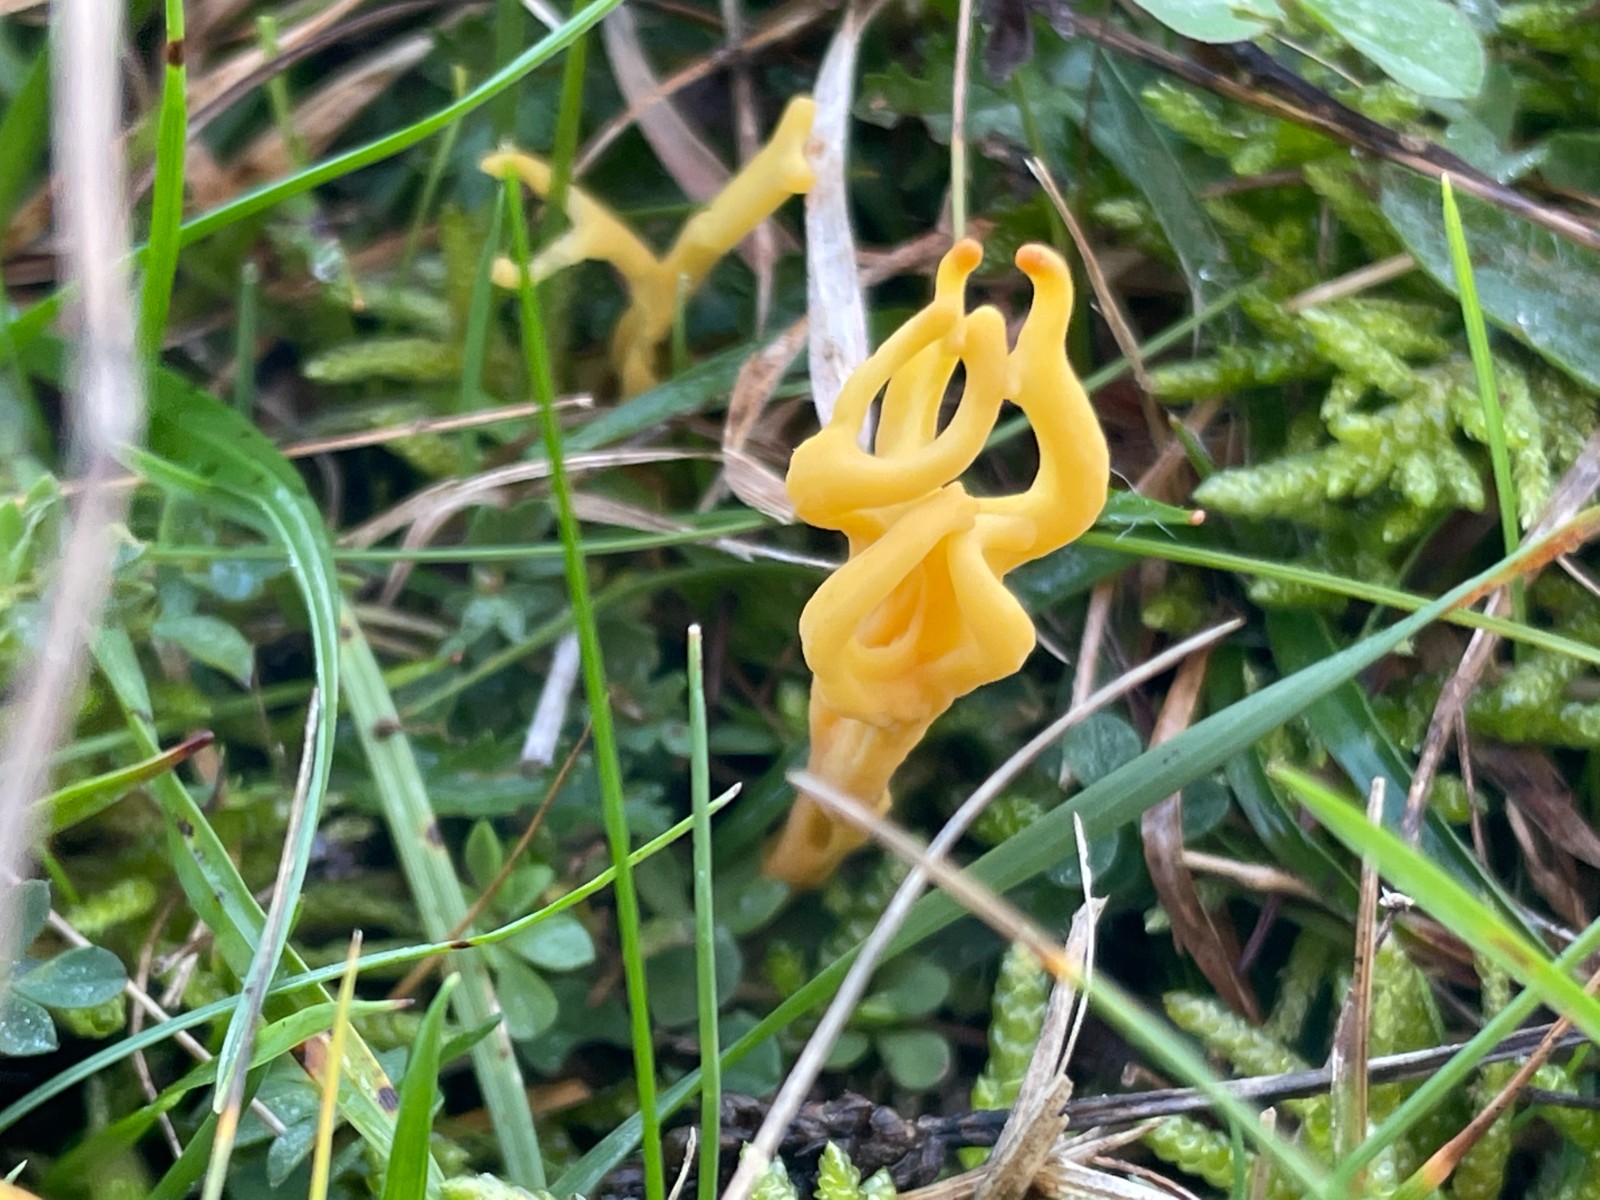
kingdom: Fungi
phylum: Basidiomycota
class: Agaricomycetes
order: Agaricales
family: Clavariaceae
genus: Clavulinopsis
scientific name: Clavulinopsis corniculata
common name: eng-køllesvamp
